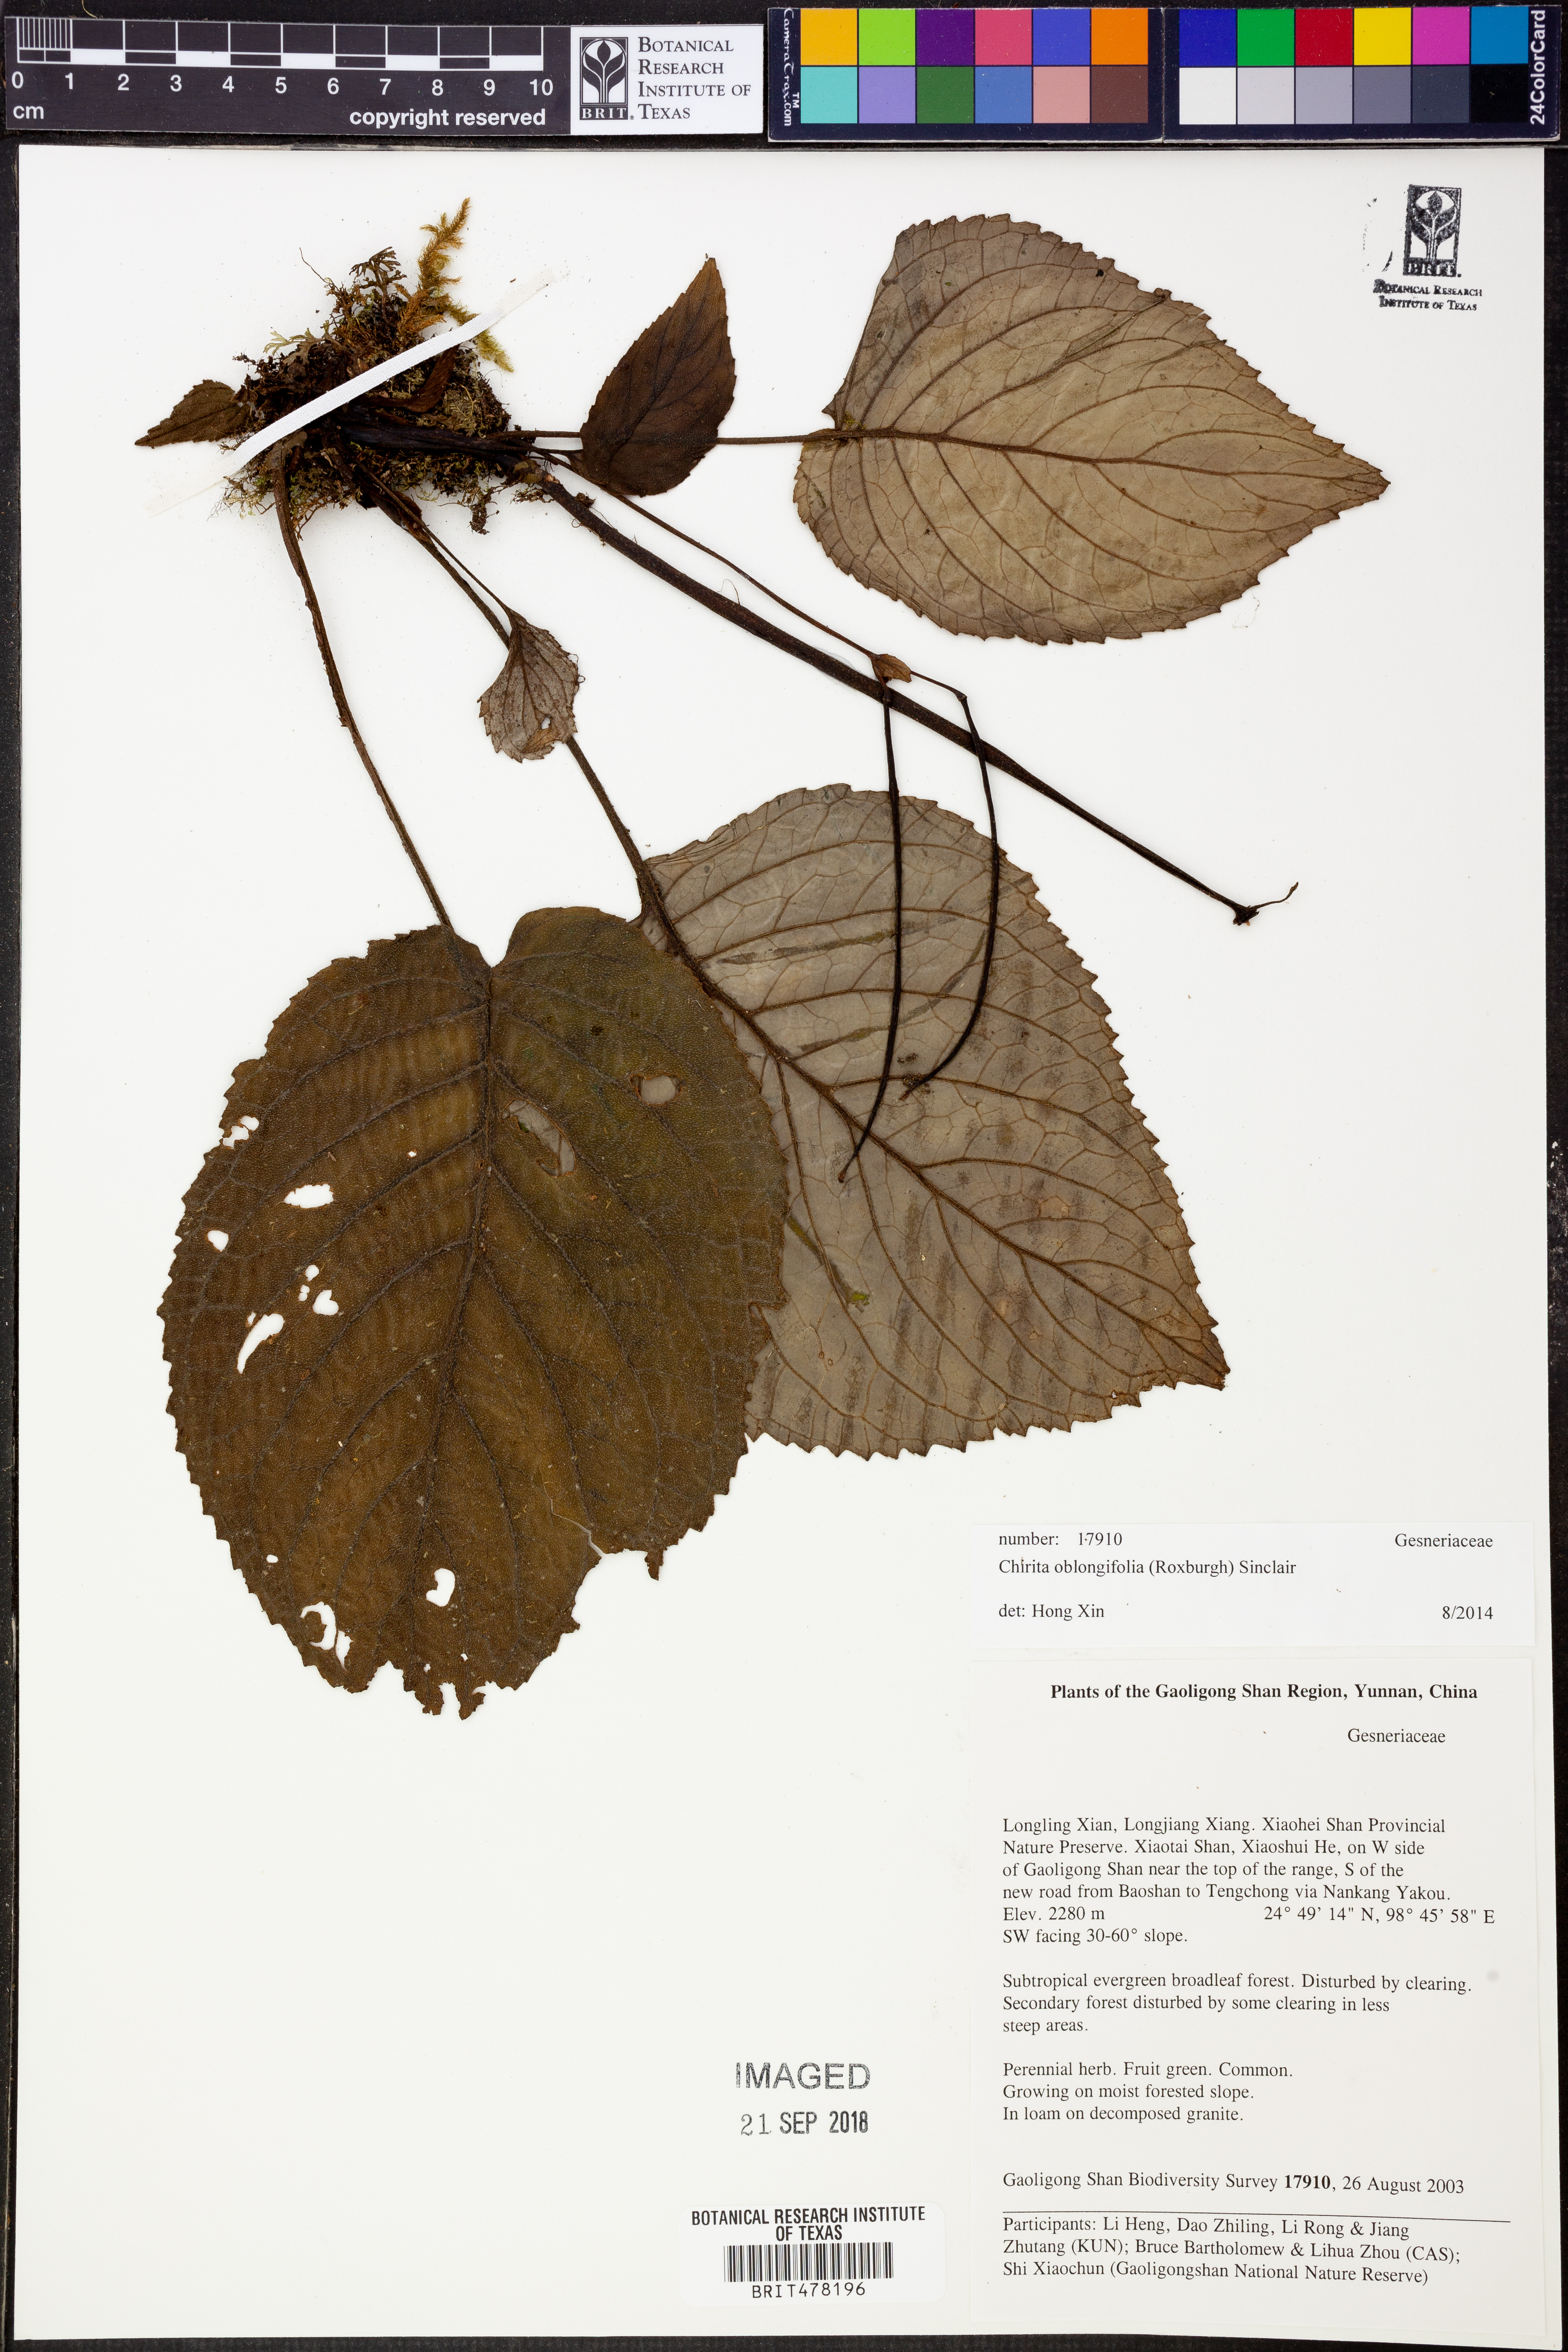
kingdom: Plantae
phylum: Tracheophyta
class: Magnoliopsida
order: Lamiales
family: Gesneriaceae
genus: Henckelia
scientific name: Henckelia oblongifolia
